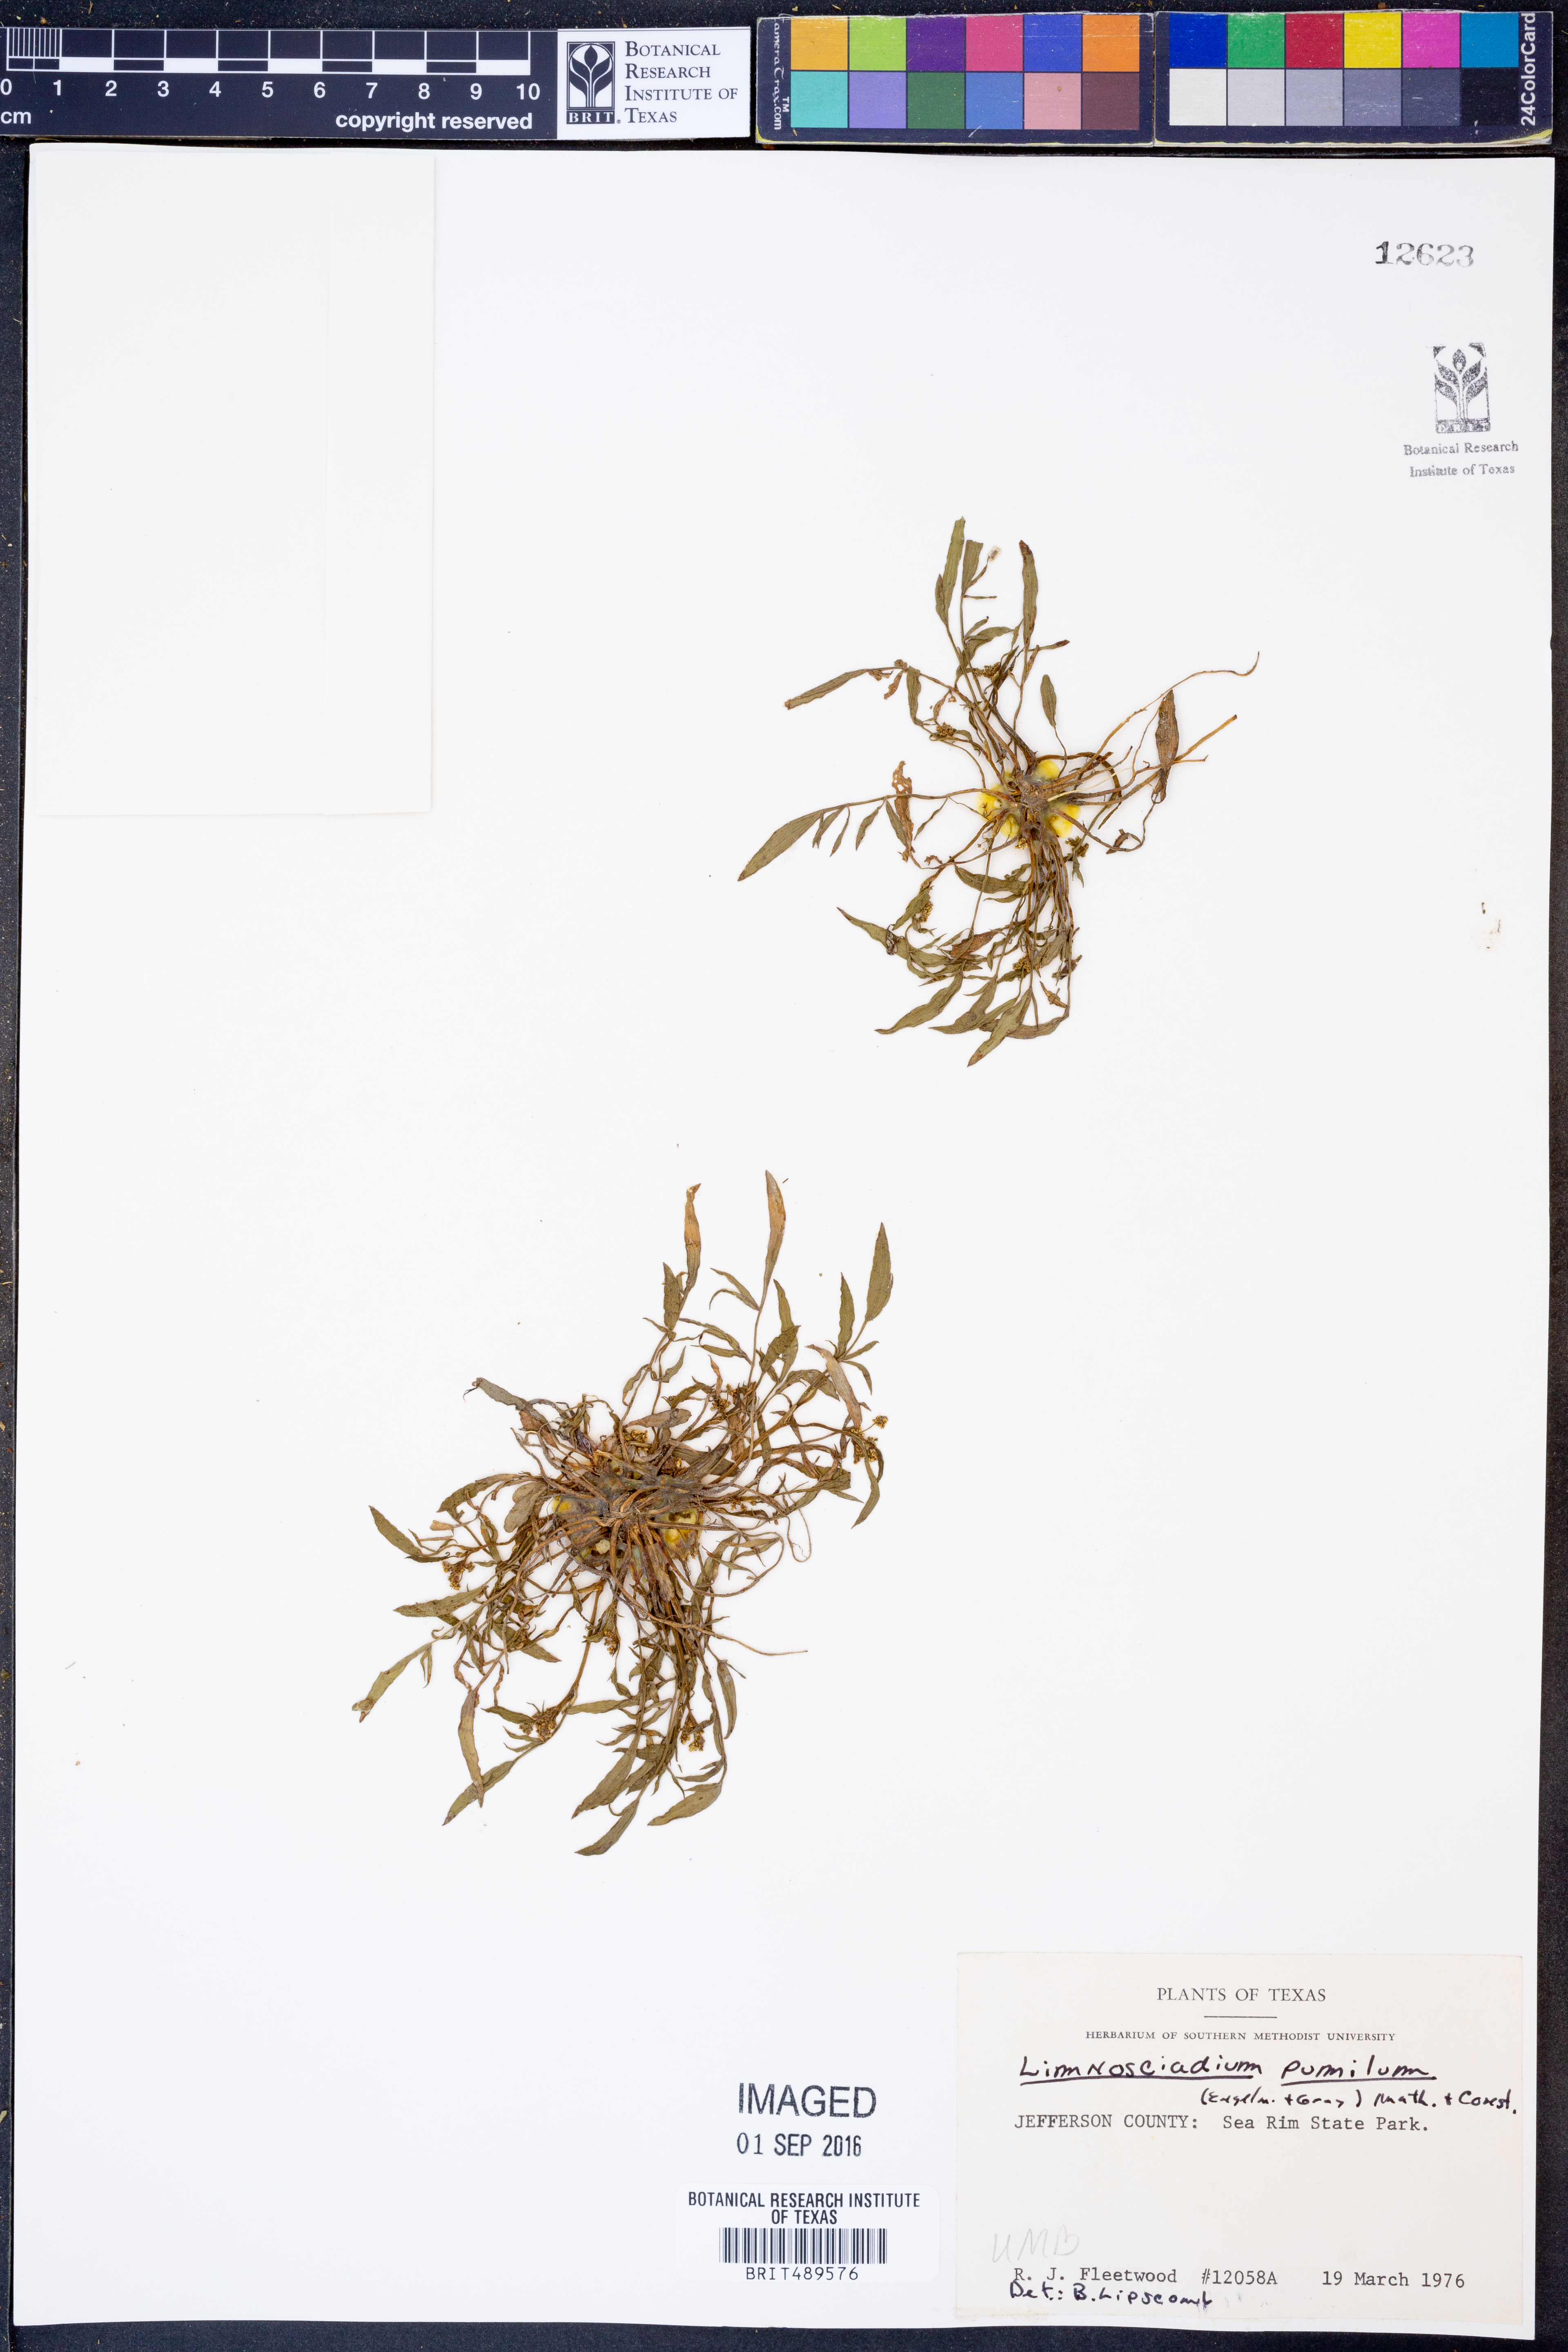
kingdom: Plantae
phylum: Tracheophyta
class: Magnoliopsida
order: Apiales
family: Apiaceae
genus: Limnosciadium
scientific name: Limnosciadium pinnatum
